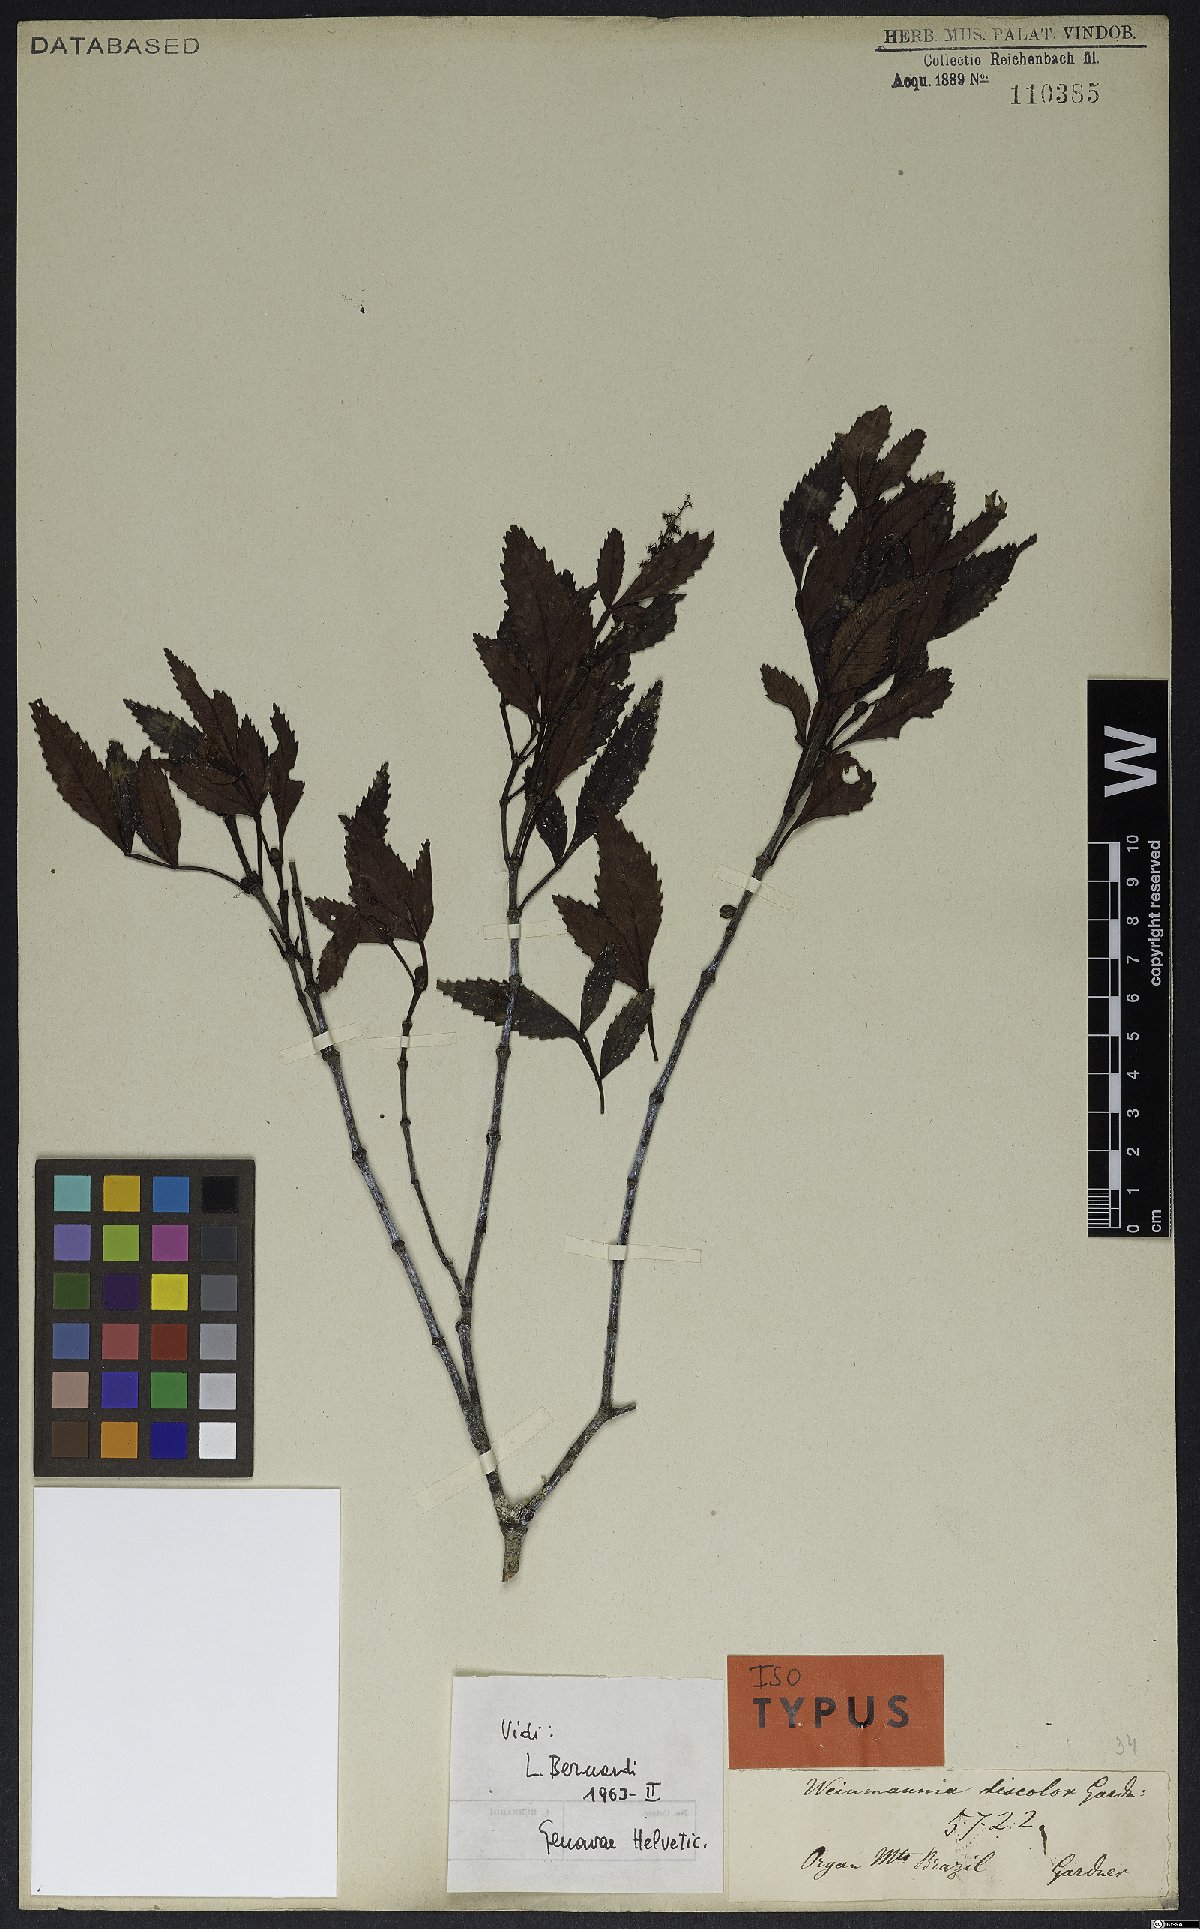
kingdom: Plantae
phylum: Tracheophyta
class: Magnoliopsida
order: Oxalidales
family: Cunoniaceae
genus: Weinmannia
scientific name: Weinmannia discolor
